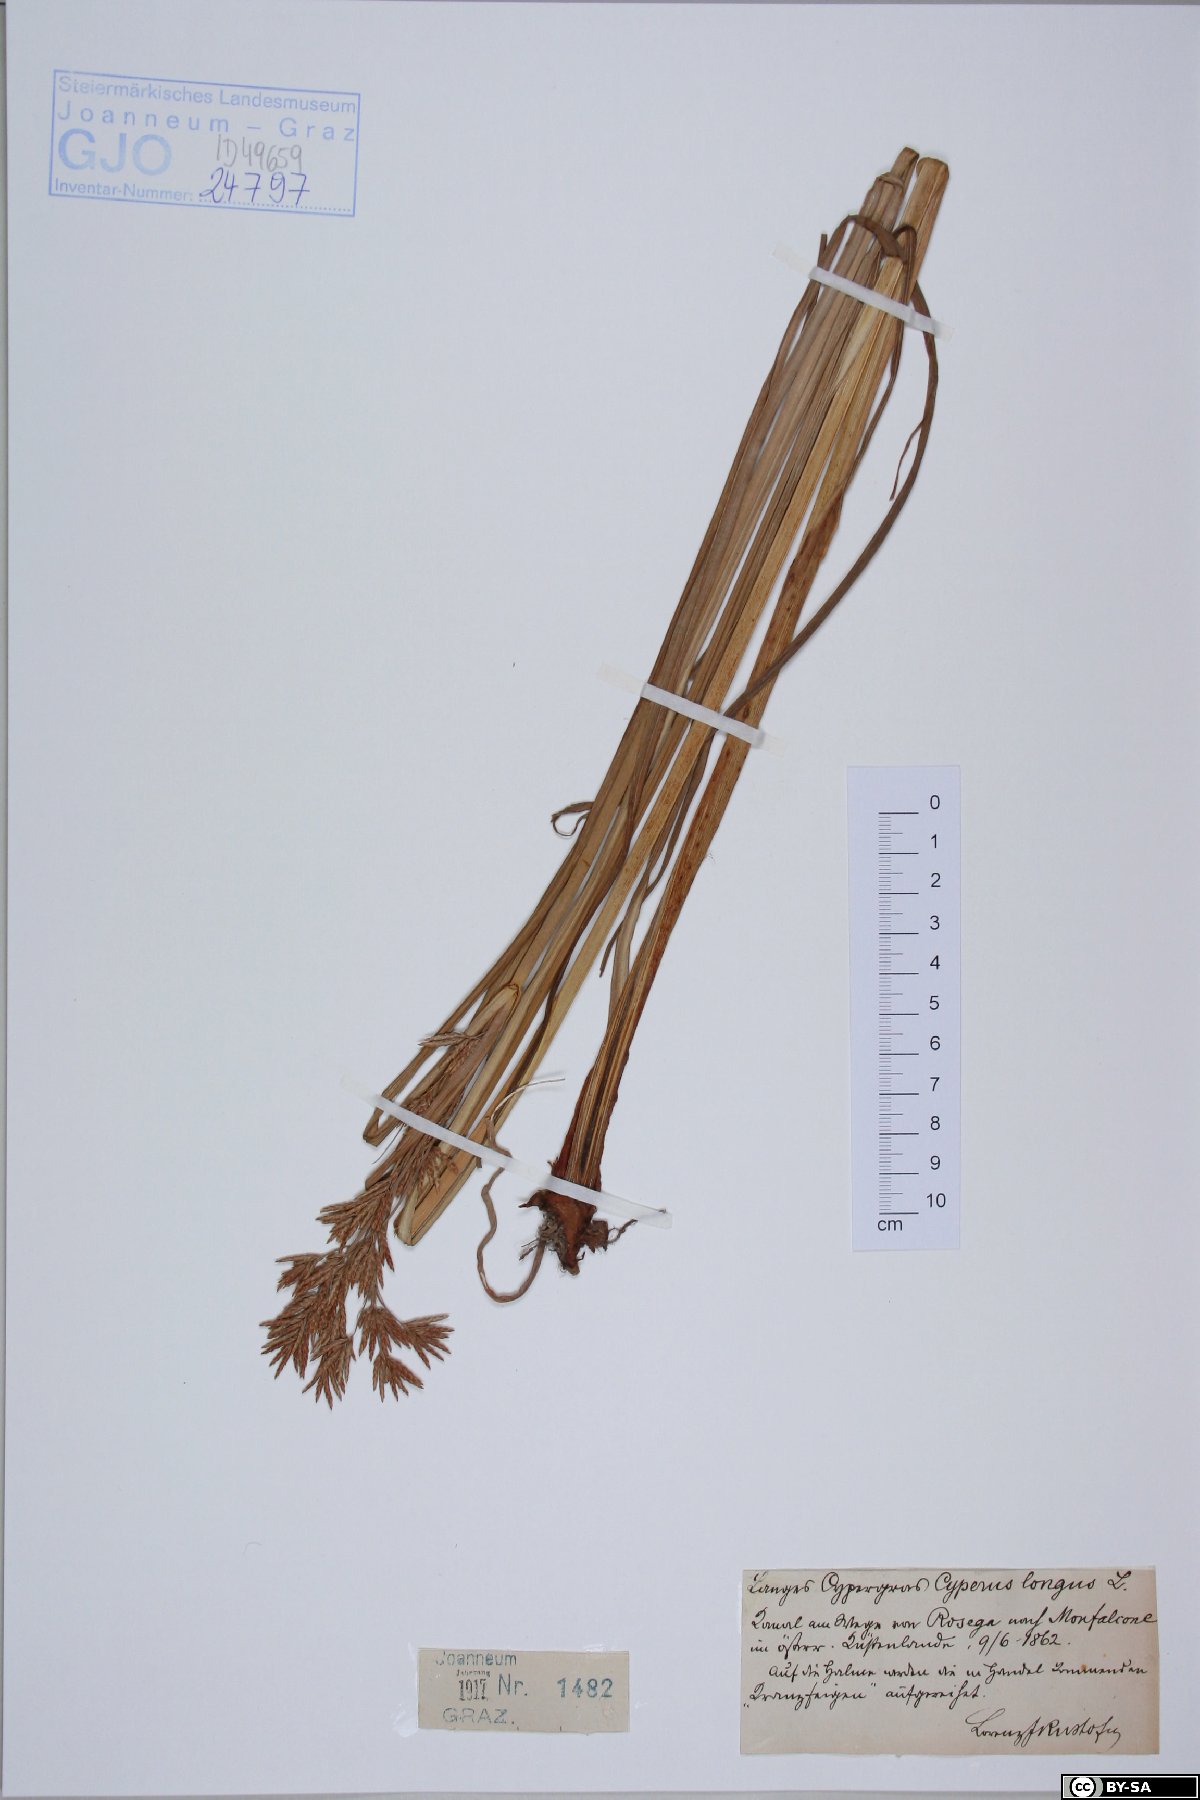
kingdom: Plantae
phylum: Tracheophyta
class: Liliopsida
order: Poales
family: Cyperaceae
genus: Cyperus
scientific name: Cyperus longus
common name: Galingale
